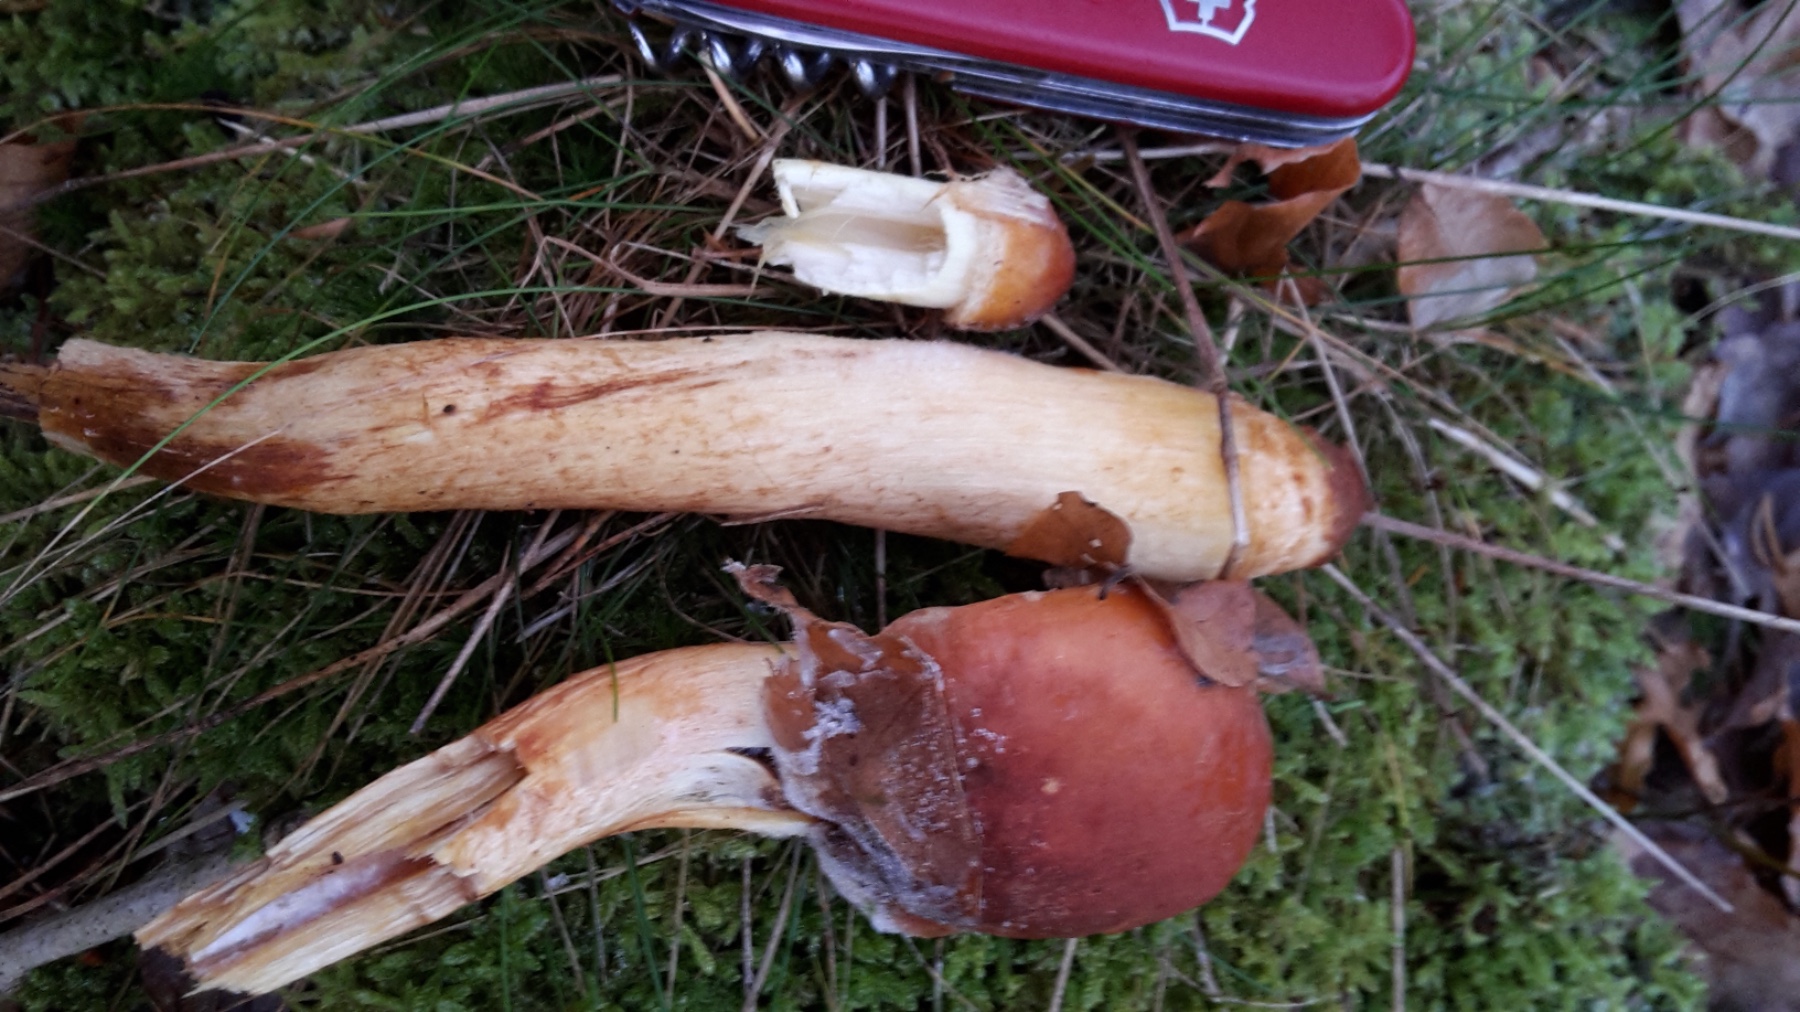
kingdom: Fungi
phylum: Basidiomycota
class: Agaricomycetes
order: Agaricales
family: Strophariaceae
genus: Hypholoma
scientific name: Hypholoma lateritium
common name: teglrød svovlhat
